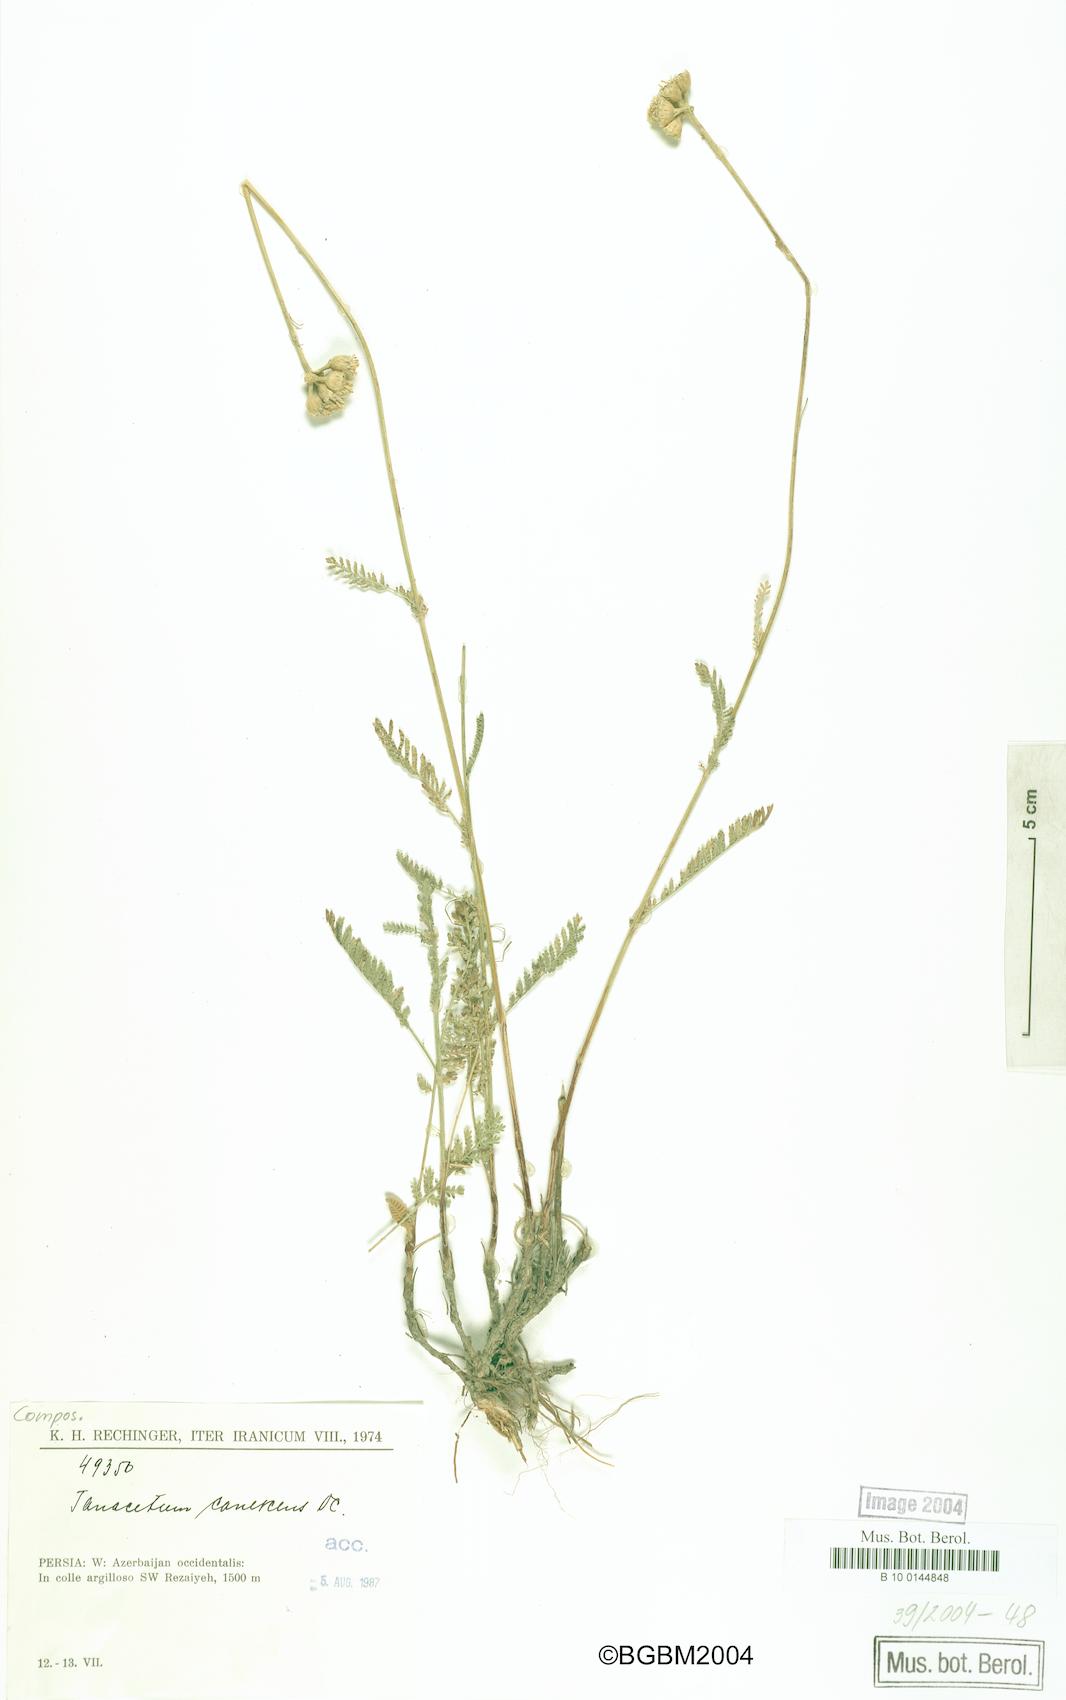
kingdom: Plantae
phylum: Tracheophyta
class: Magnoliopsida
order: Asterales
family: Asteraceae
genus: Tanacetum
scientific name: Tanacetum canescens
